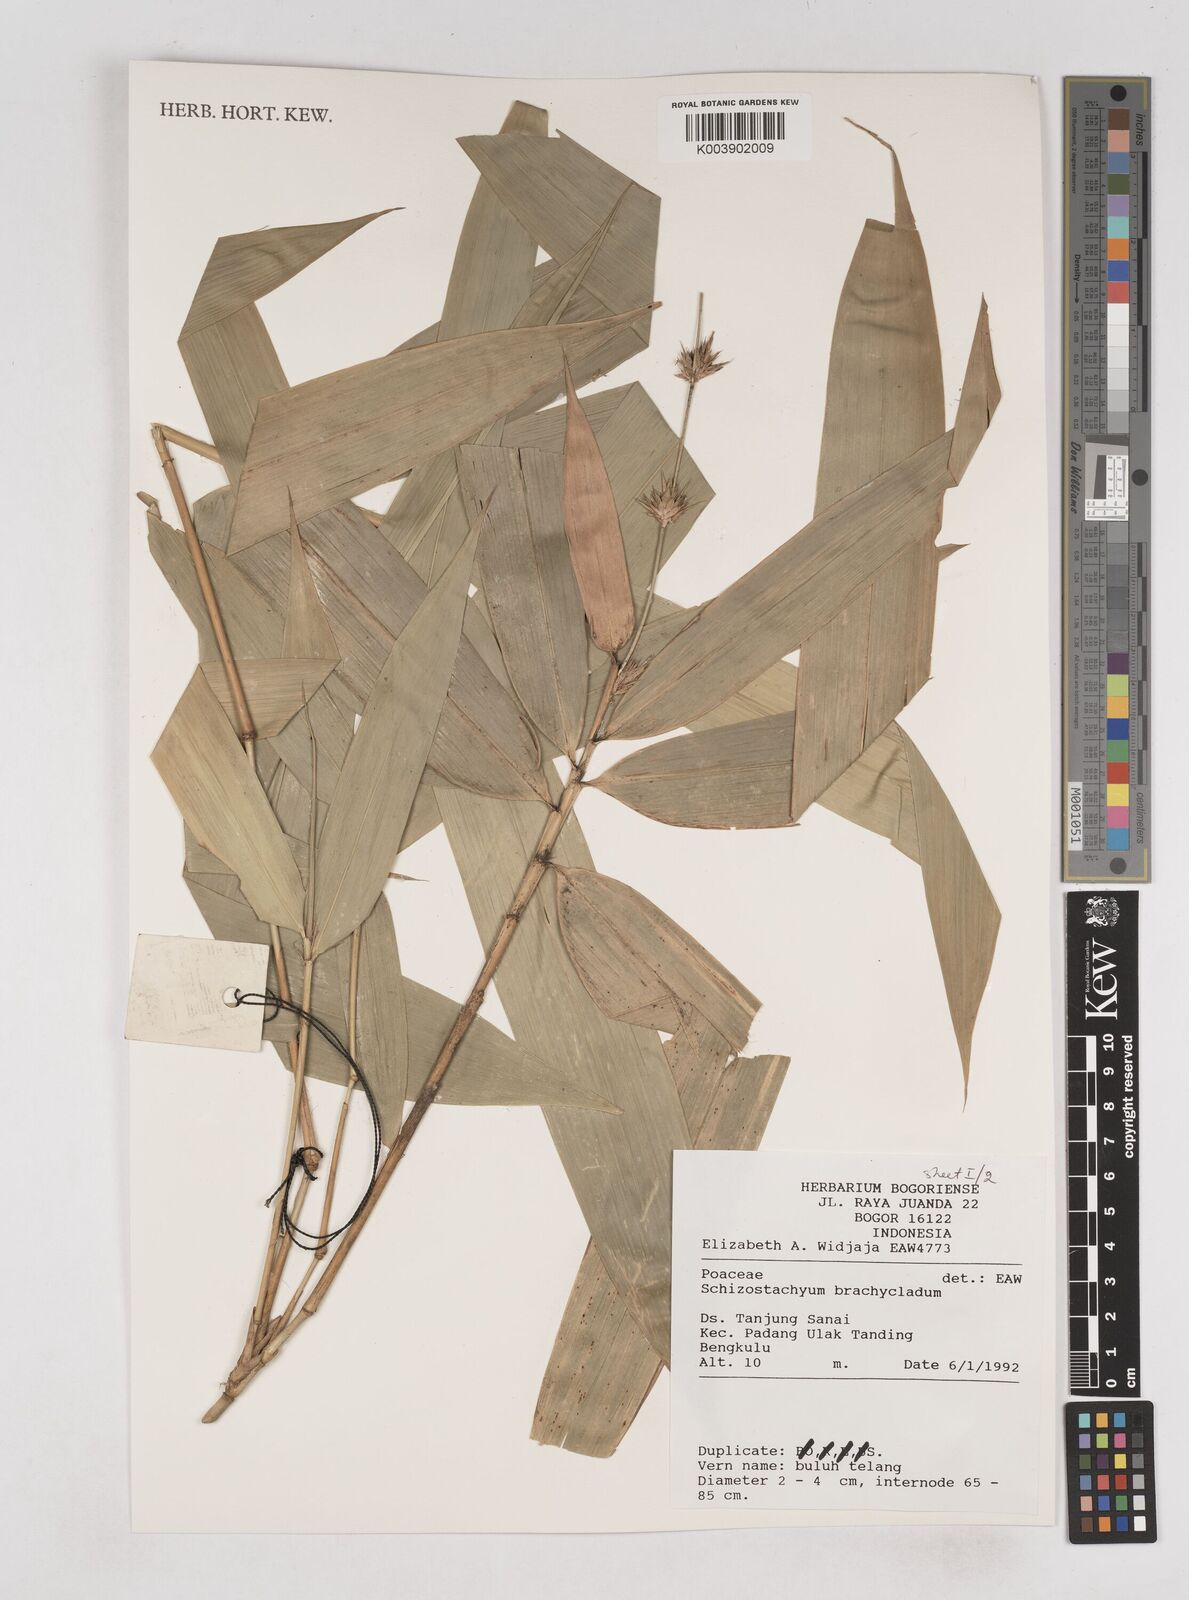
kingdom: Plantae
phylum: Tracheophyta
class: Liliopsida
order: Poales
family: Poaceae
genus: Schizostachyum
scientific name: Schizostachyum brachycladum
